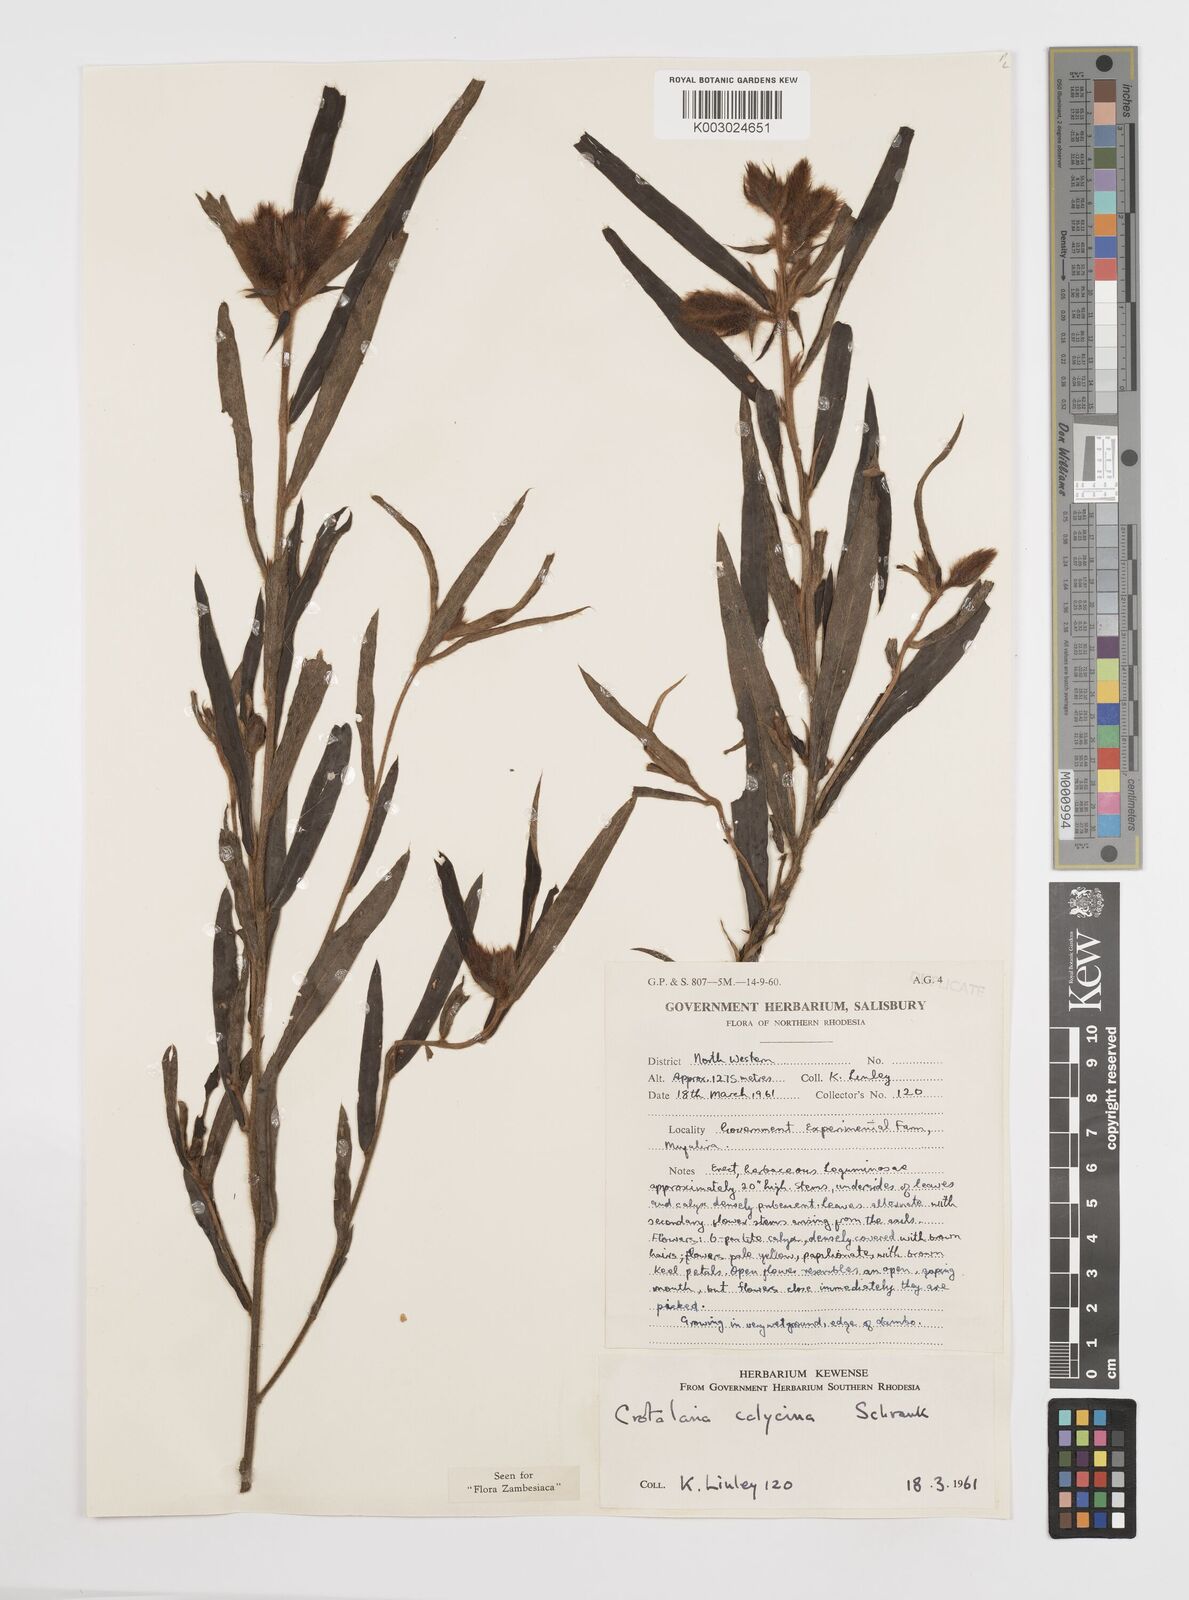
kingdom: Plantae
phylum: Tracheophyta
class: Magnoliopsida
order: Fabales
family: Fabaceae
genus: Crotalaria
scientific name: Crotalaria calycina
